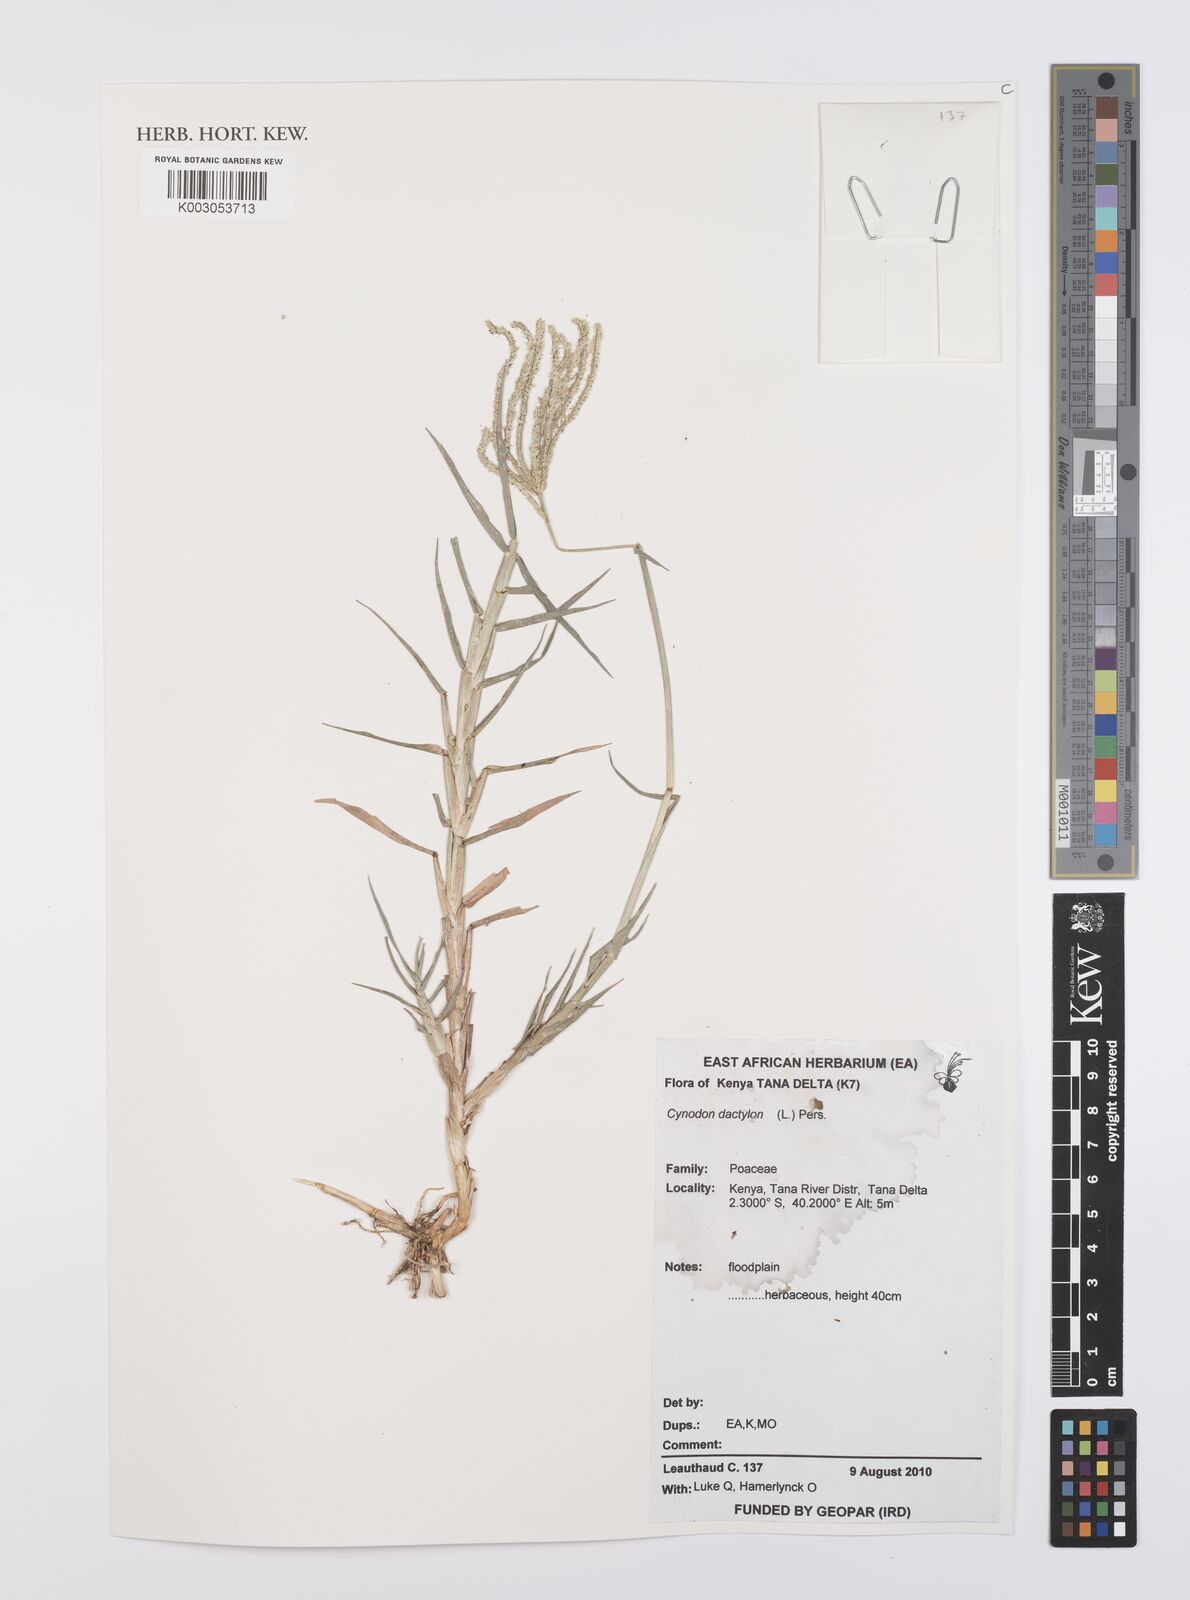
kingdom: Plantae
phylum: Tracheophyta
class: Liliopsida
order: Poales
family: Poaceae
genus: Cynodon
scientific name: Cynodon dactylon
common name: Bermuda grass
